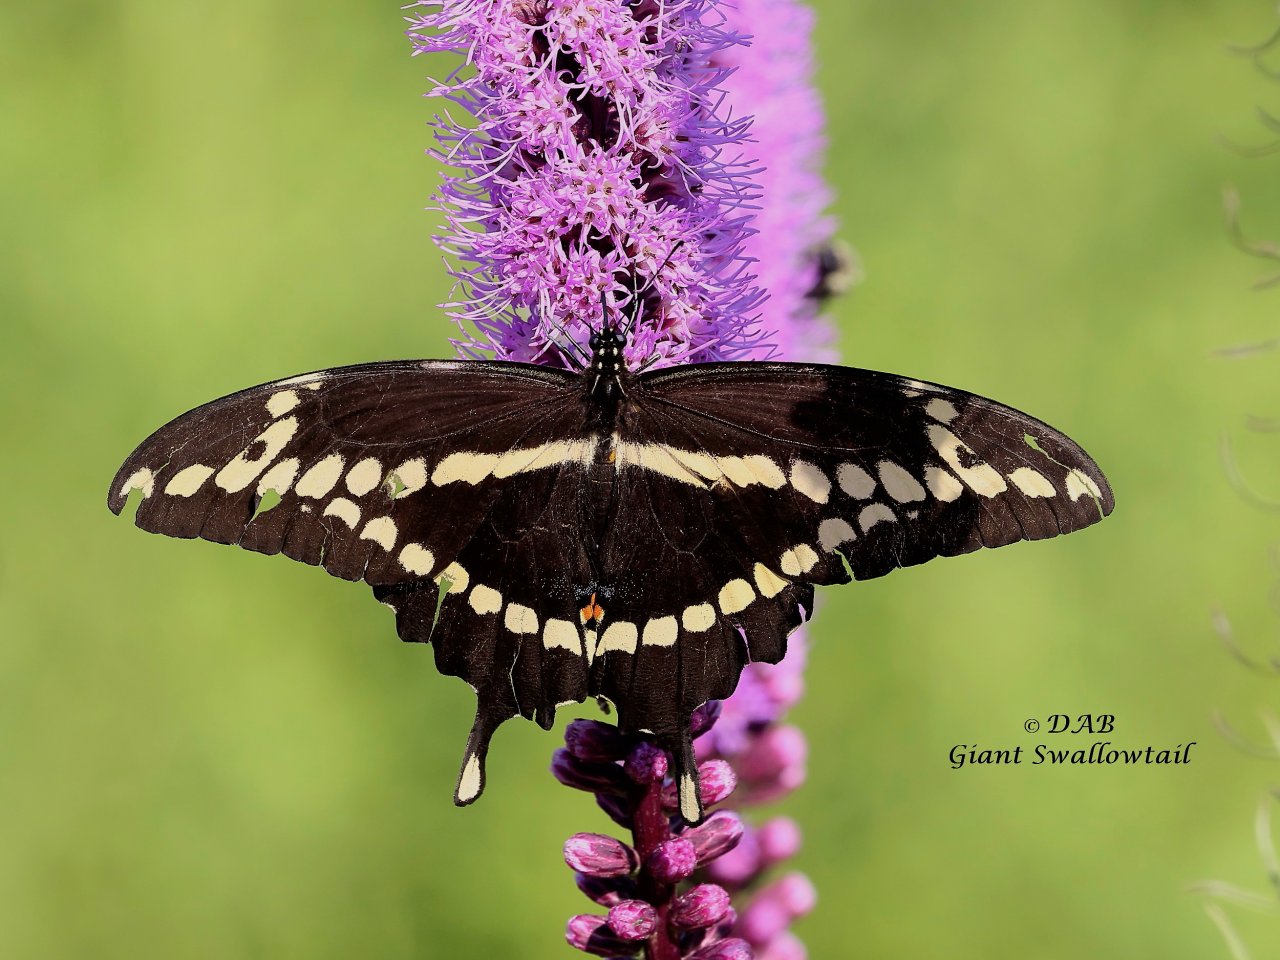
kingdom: Animalia
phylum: Arthropoda
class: Insecta
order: Lepidoptera
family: Papilionidae
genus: Papilio
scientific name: Papilio cresphontes
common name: Eastern Giant Swallowtail
